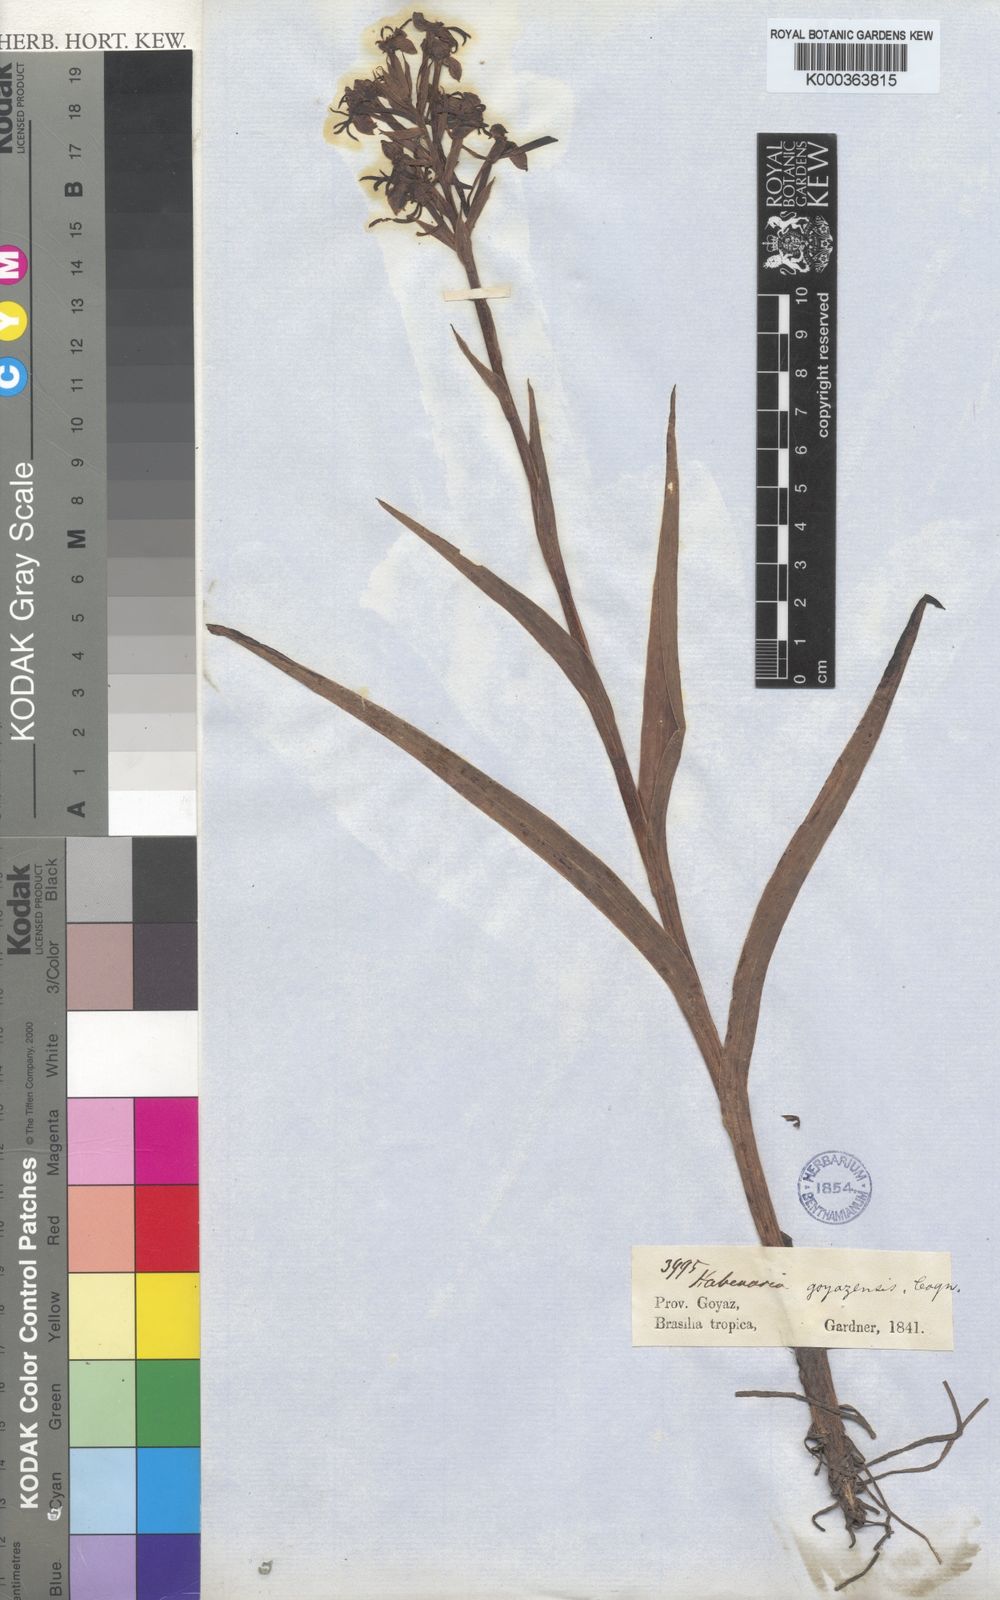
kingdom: Plantae
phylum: Tracheophyta
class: Liliopsida
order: Asparagales
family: Orchidaceae
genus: Habenaria
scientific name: Habenaria goyazensis
